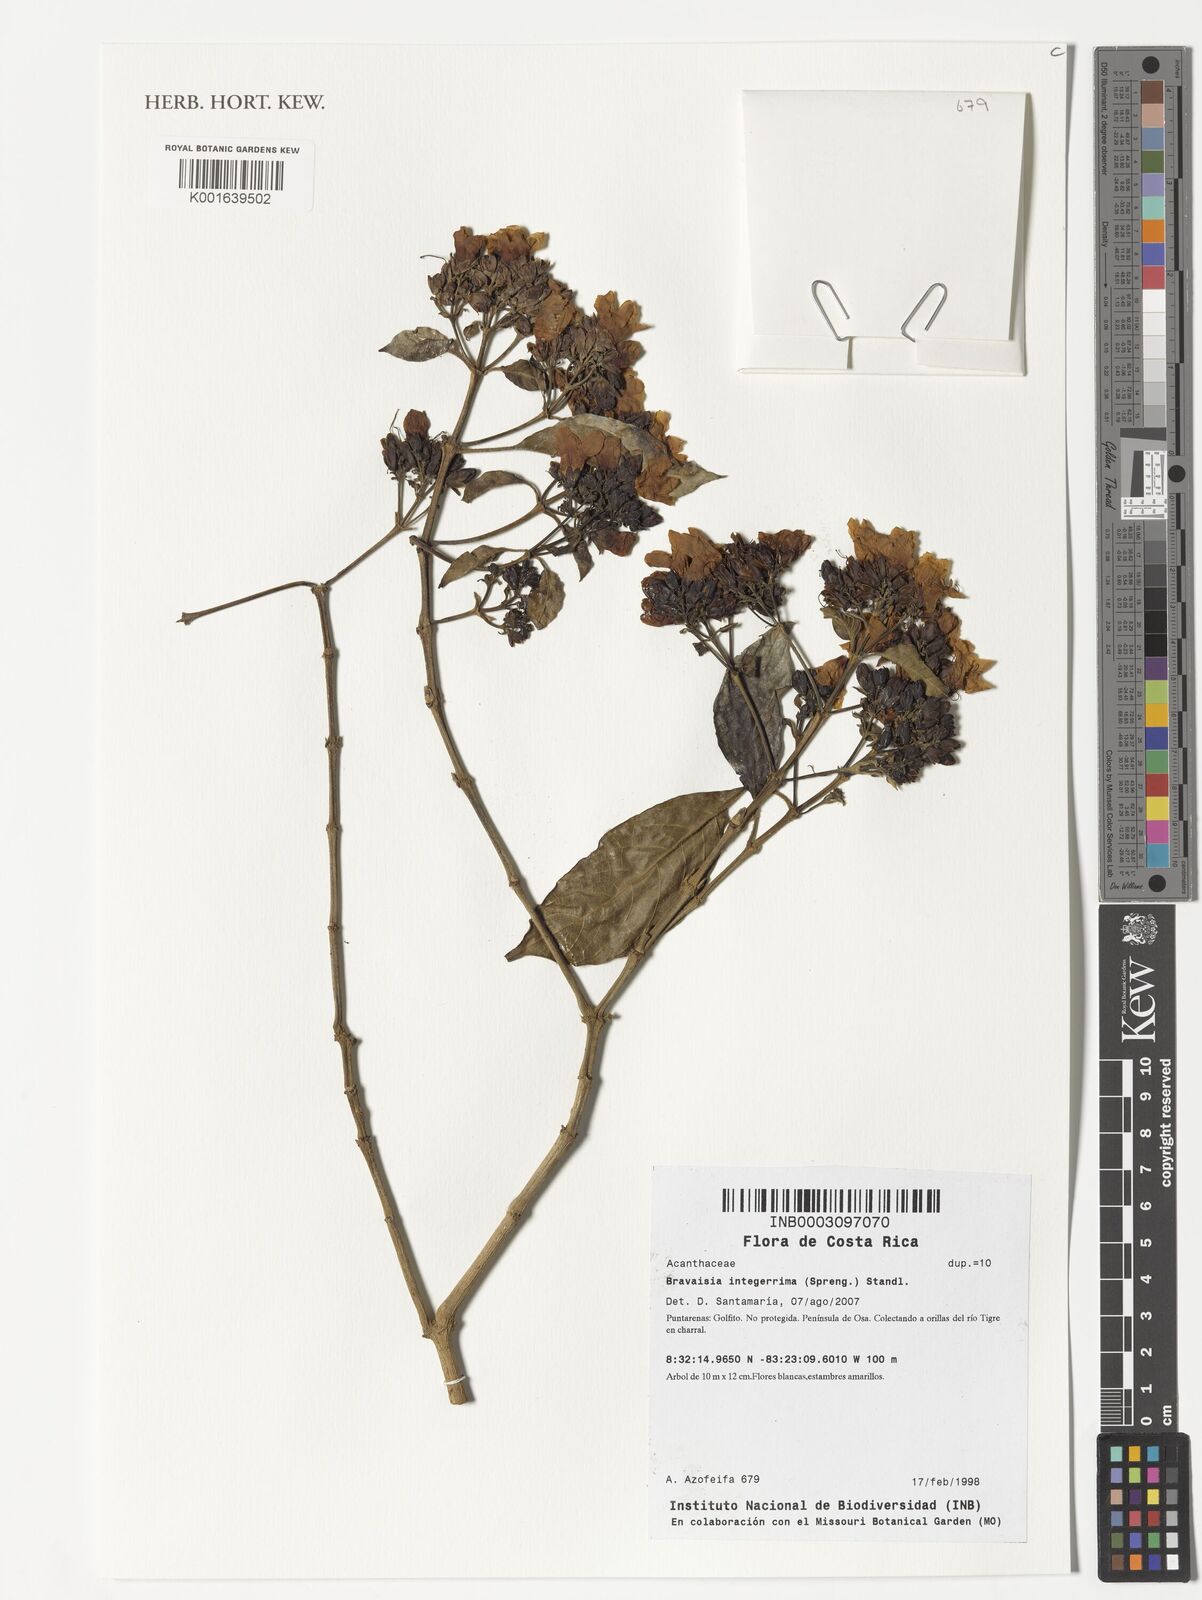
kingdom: Plantae
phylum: Tracheophyta
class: Magnoliopsida
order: Lamiales
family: Acanthaceae
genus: Bravaisia
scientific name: Bravaisia integerrima
